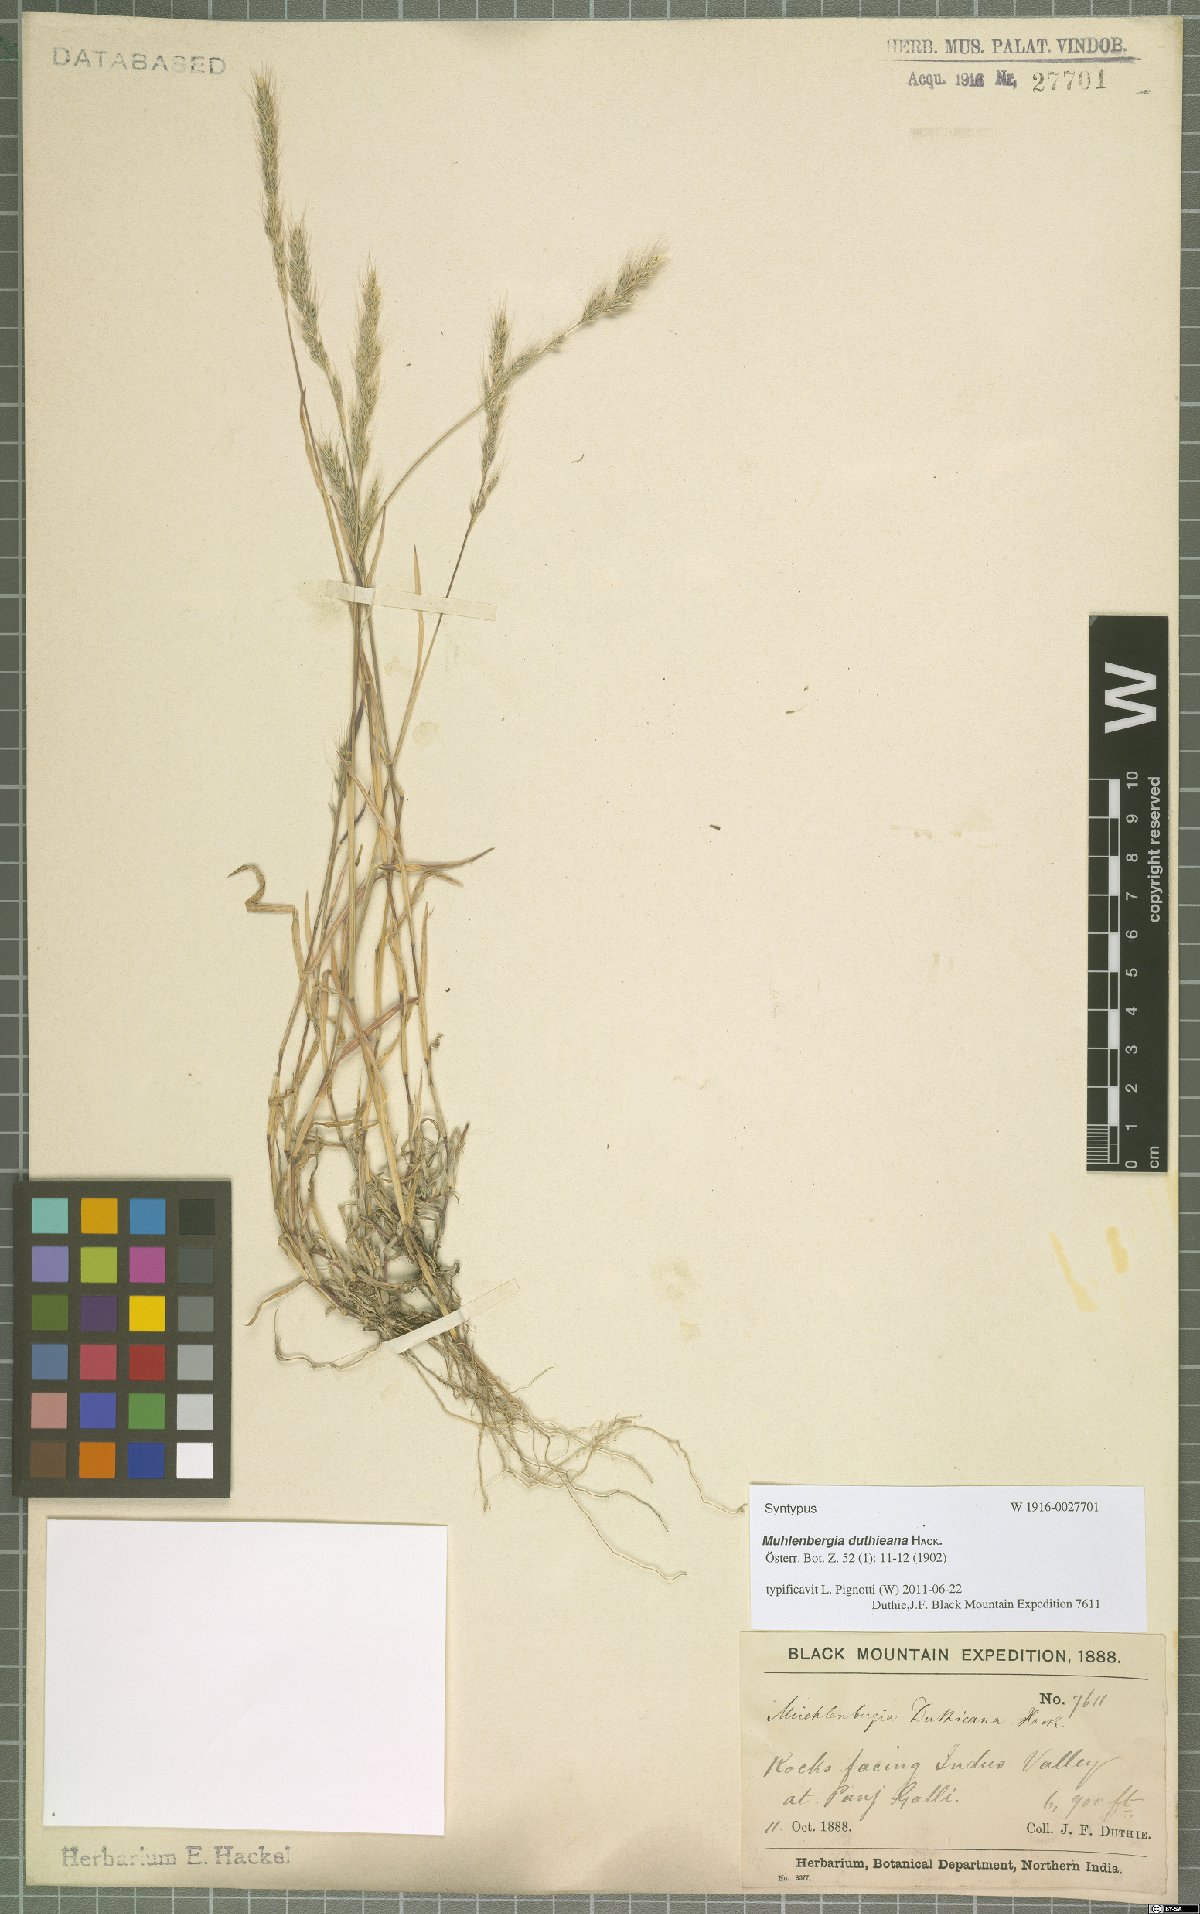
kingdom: Plantae
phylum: Tracheophyta
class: Liliopsida
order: Poales
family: Poaceae
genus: Muhlenbergia
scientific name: Muhlenbergia duthieana
